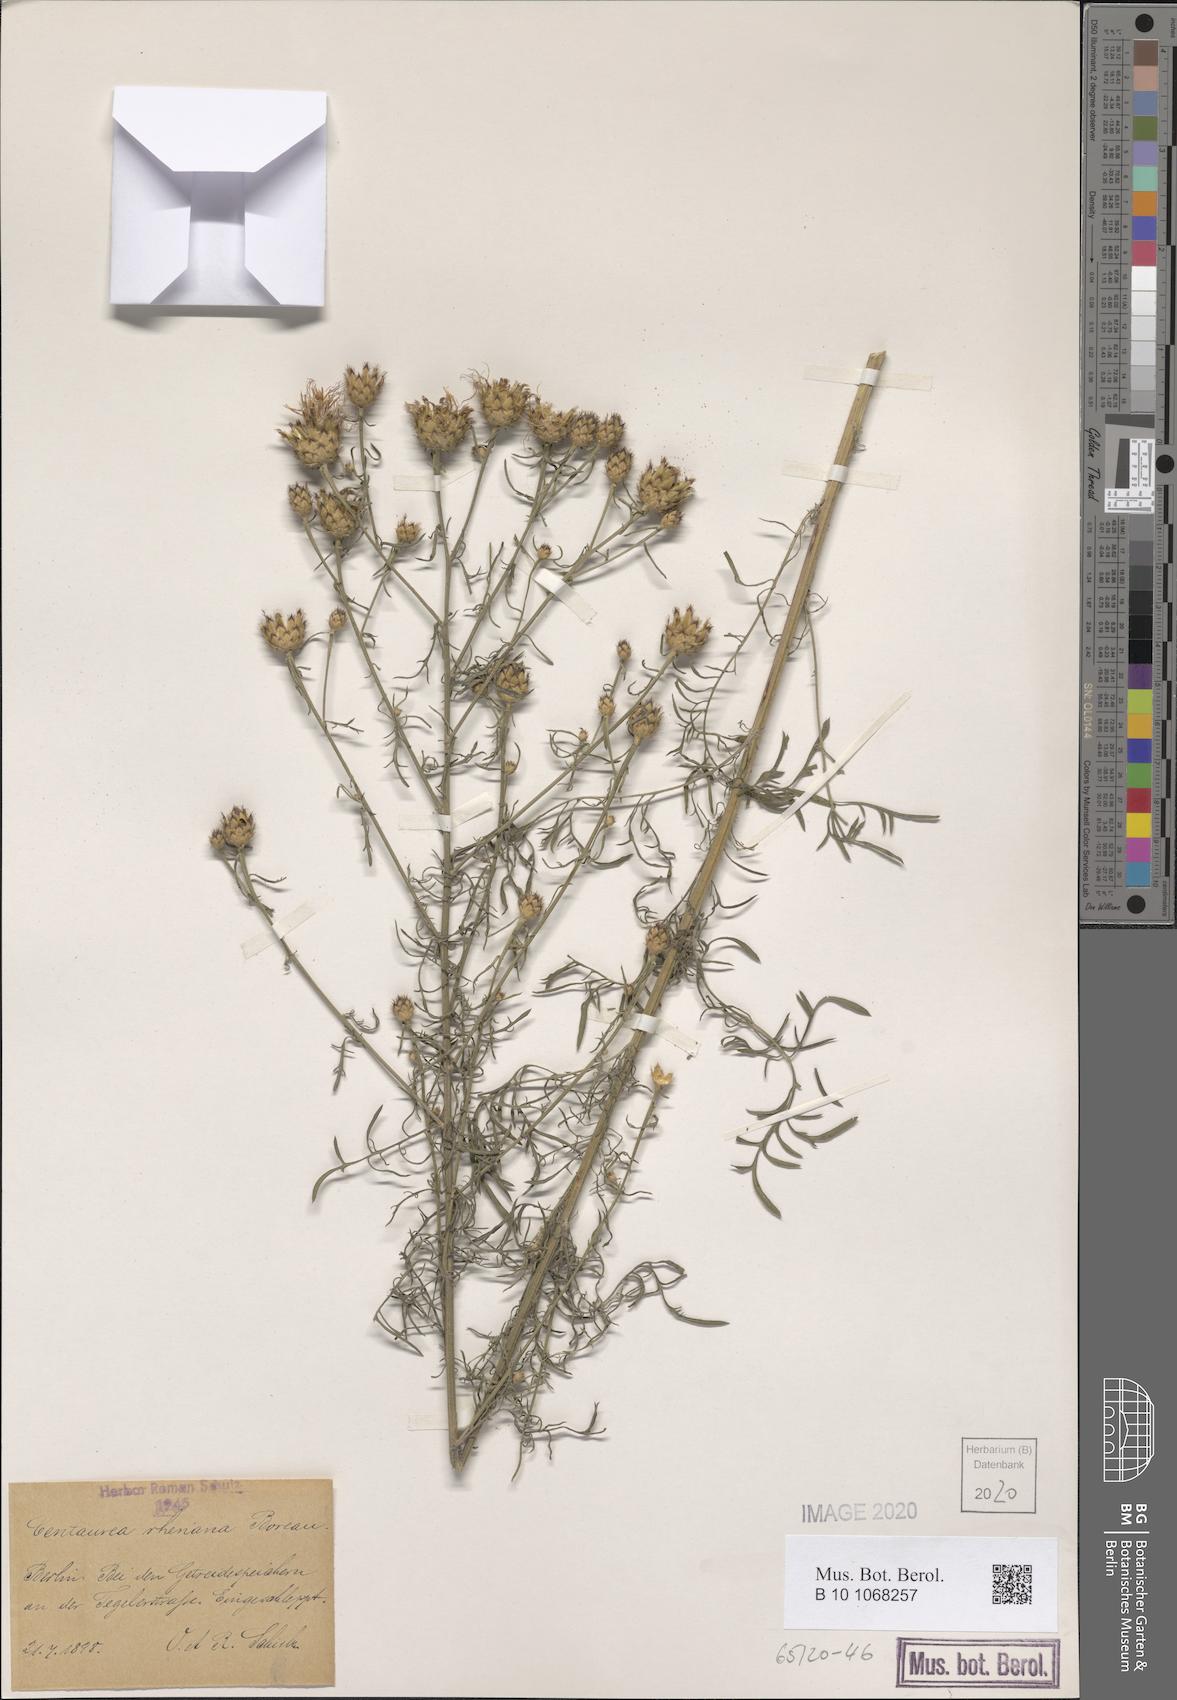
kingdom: Plantae
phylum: Tracheophyta
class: Magnoliopsida
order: Asterales
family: Asteraceae
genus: Centaurea
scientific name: Centaurea stoebe
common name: Spotted knapweed
